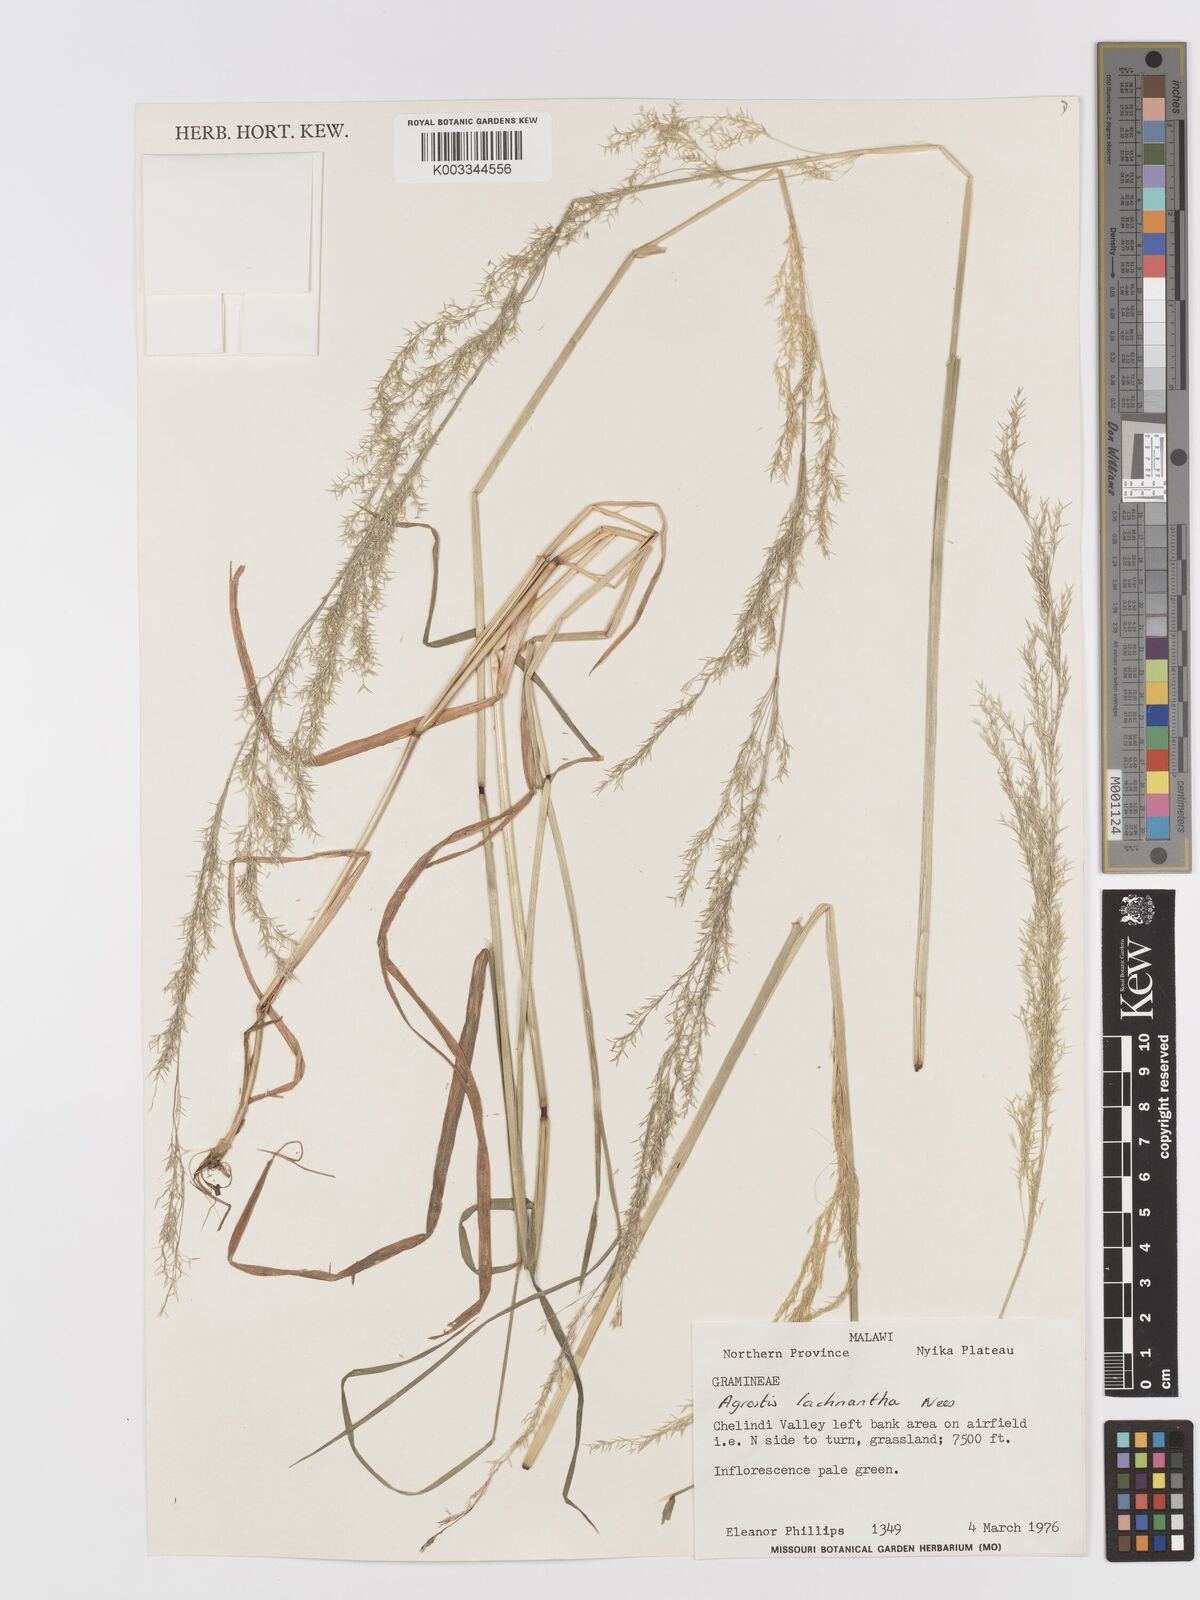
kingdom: Plantae
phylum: Tracheophyta
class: Liliopsida
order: Poales
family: Poaceae
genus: Lachnagrostis
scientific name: Lachnagrostis lachnantha
